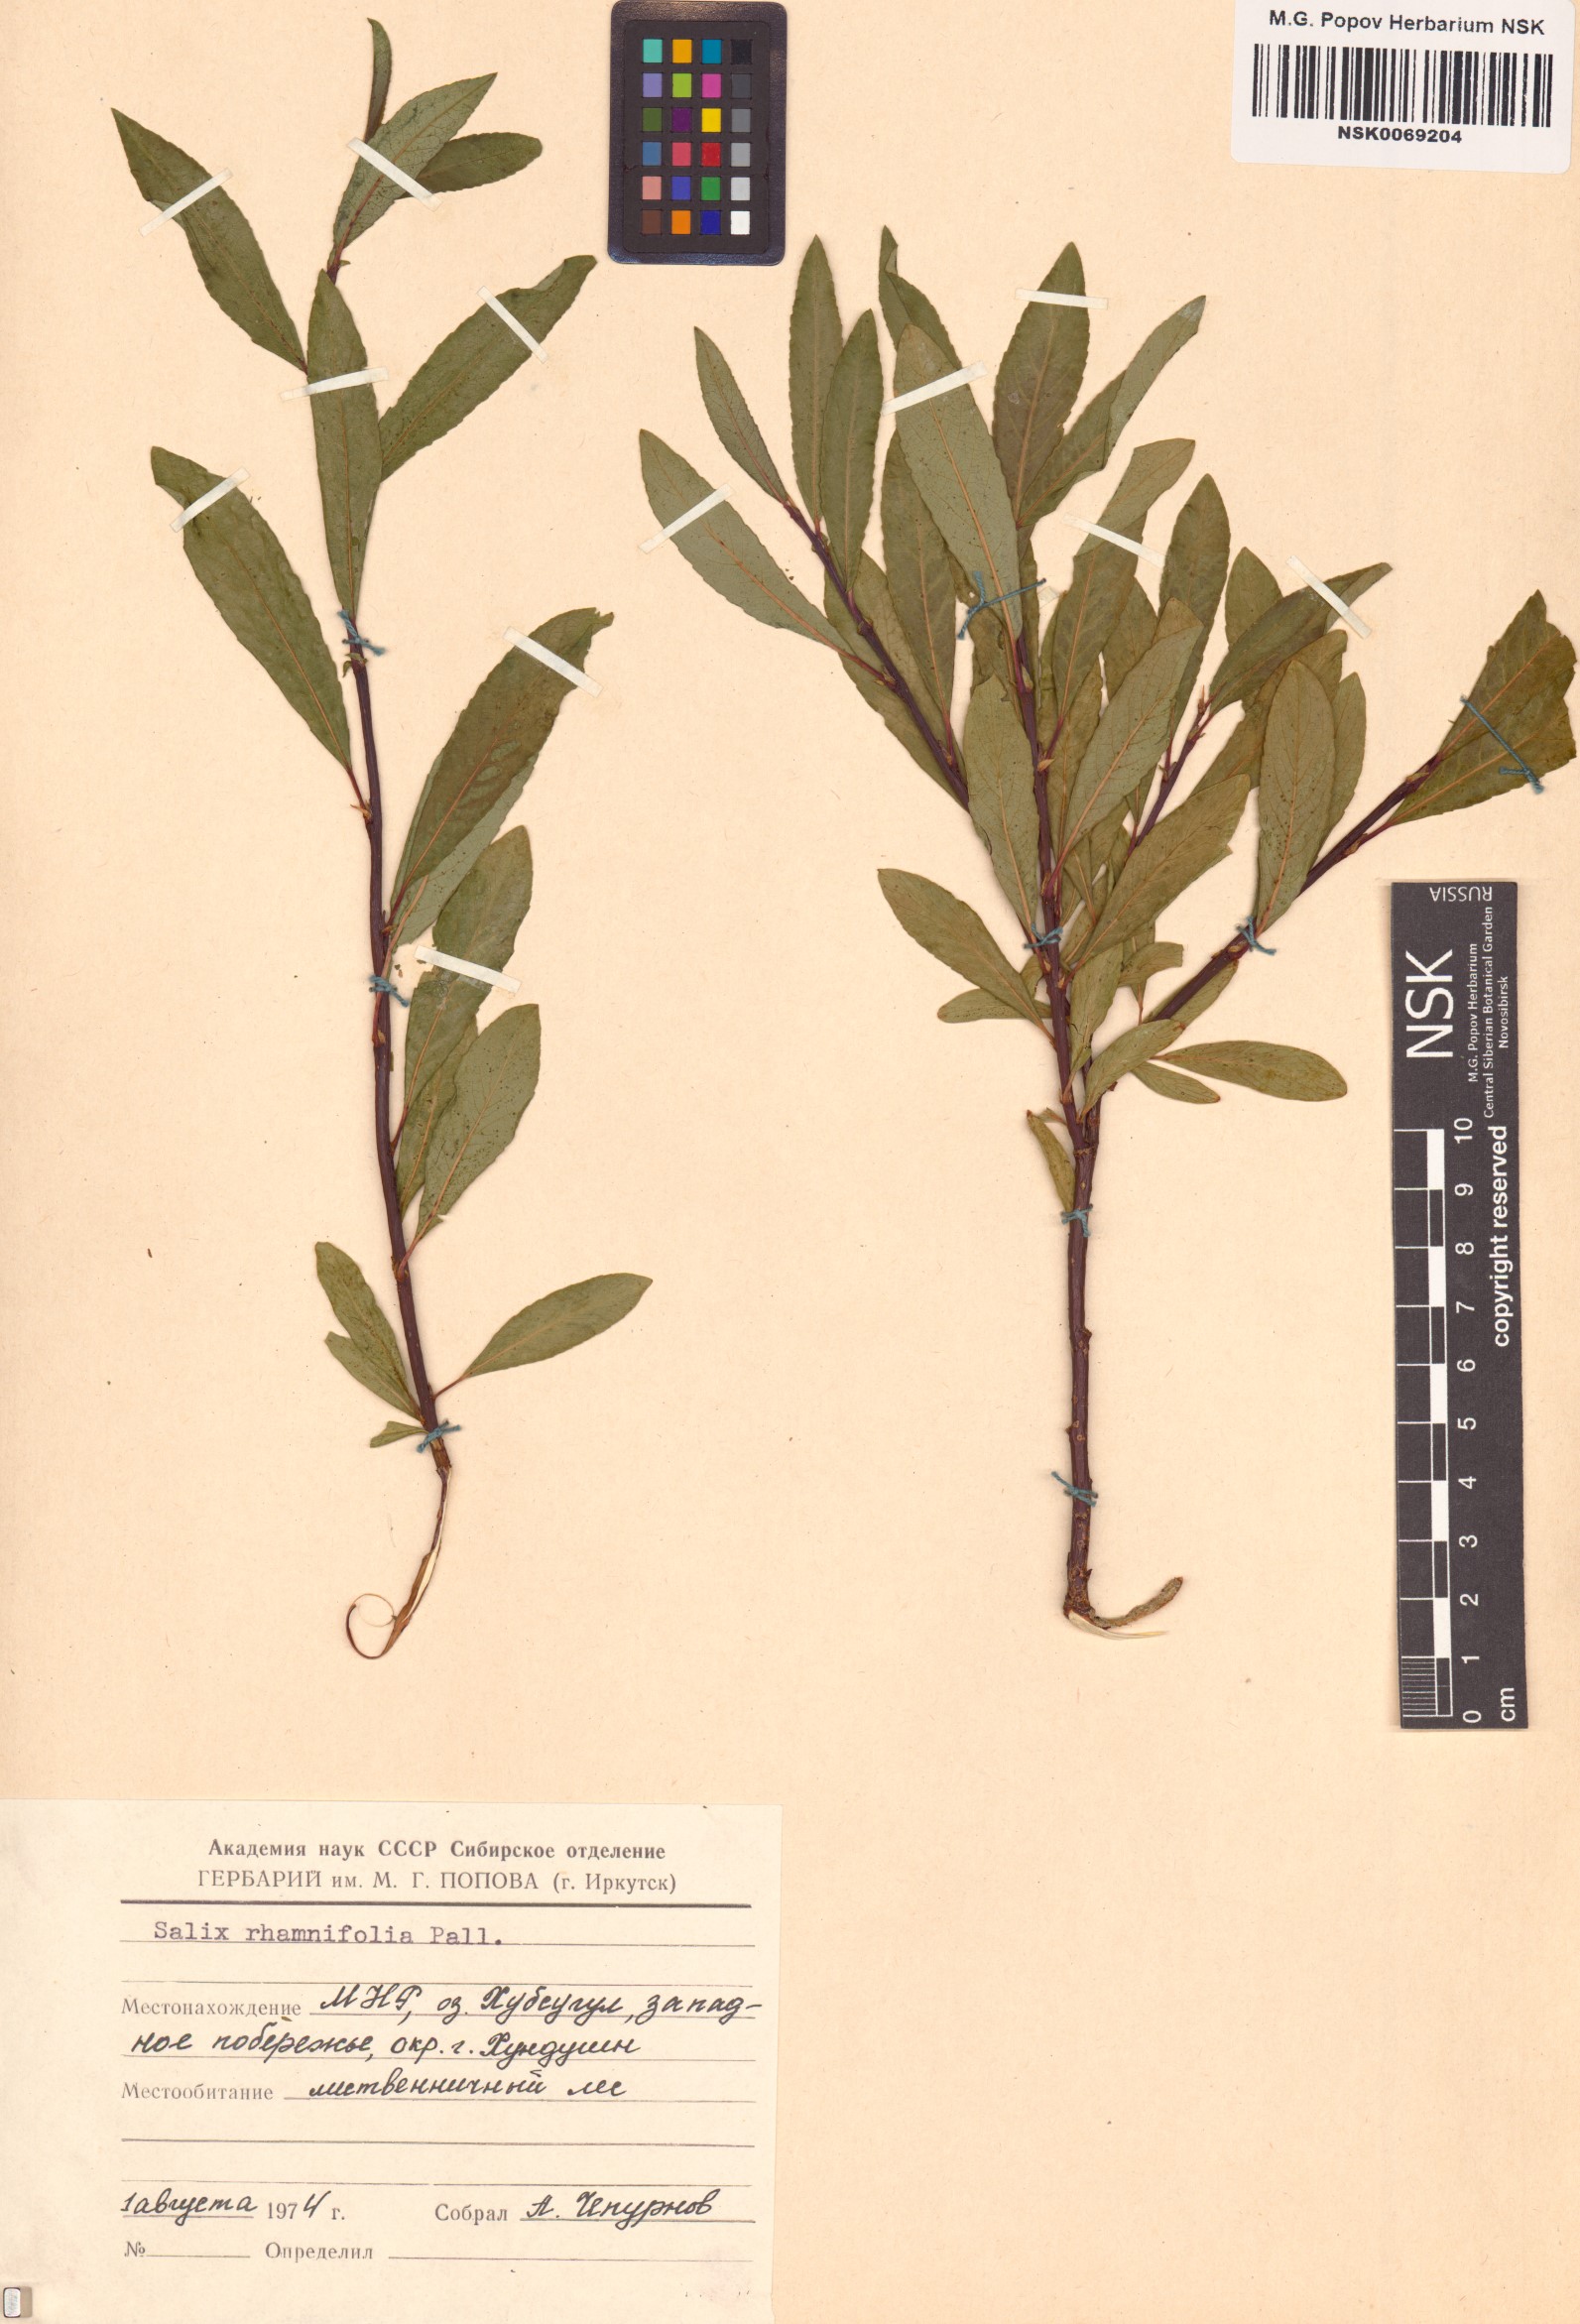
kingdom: Plantae
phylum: Tracheophyta
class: Magnoliopsida
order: Malpighiales
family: Salicaceae
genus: Salix
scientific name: Salix rhamnifolia
